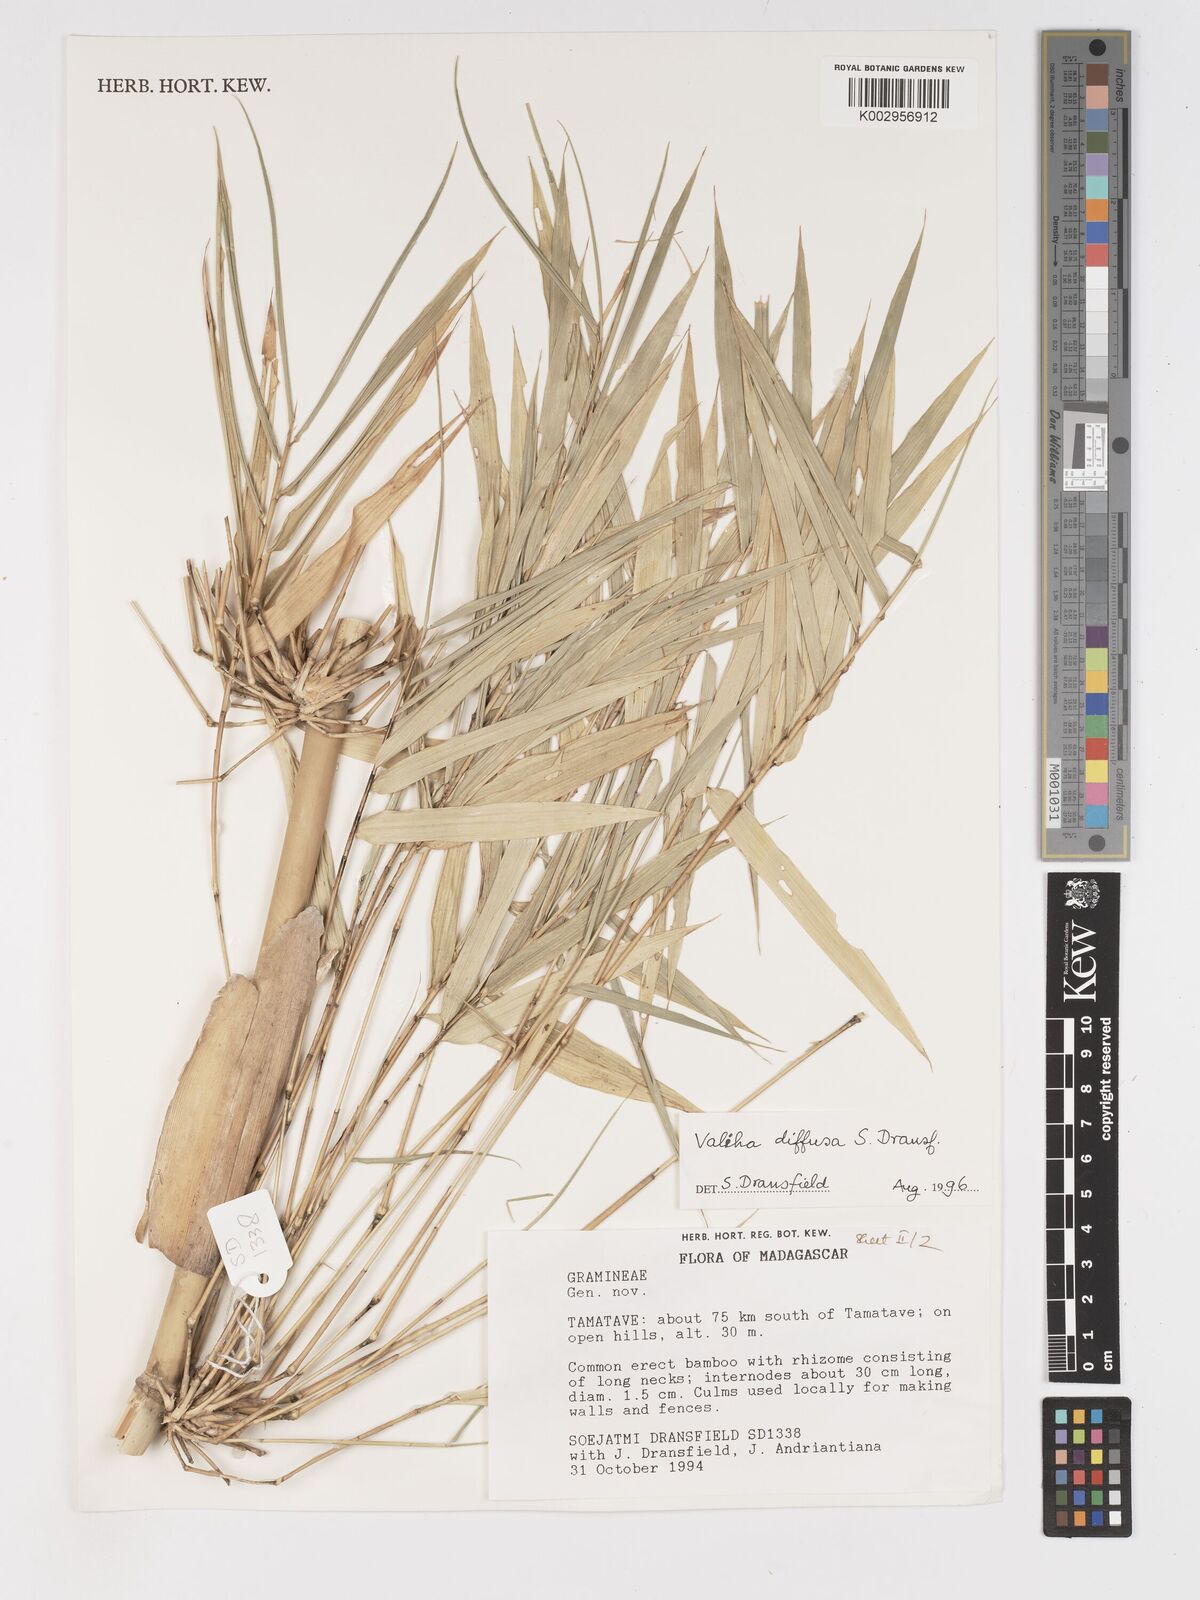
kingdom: Plantae
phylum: Tracheophyta
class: Liliopsida
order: Poales
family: Poaceae
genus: Valiha
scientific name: Valiha
